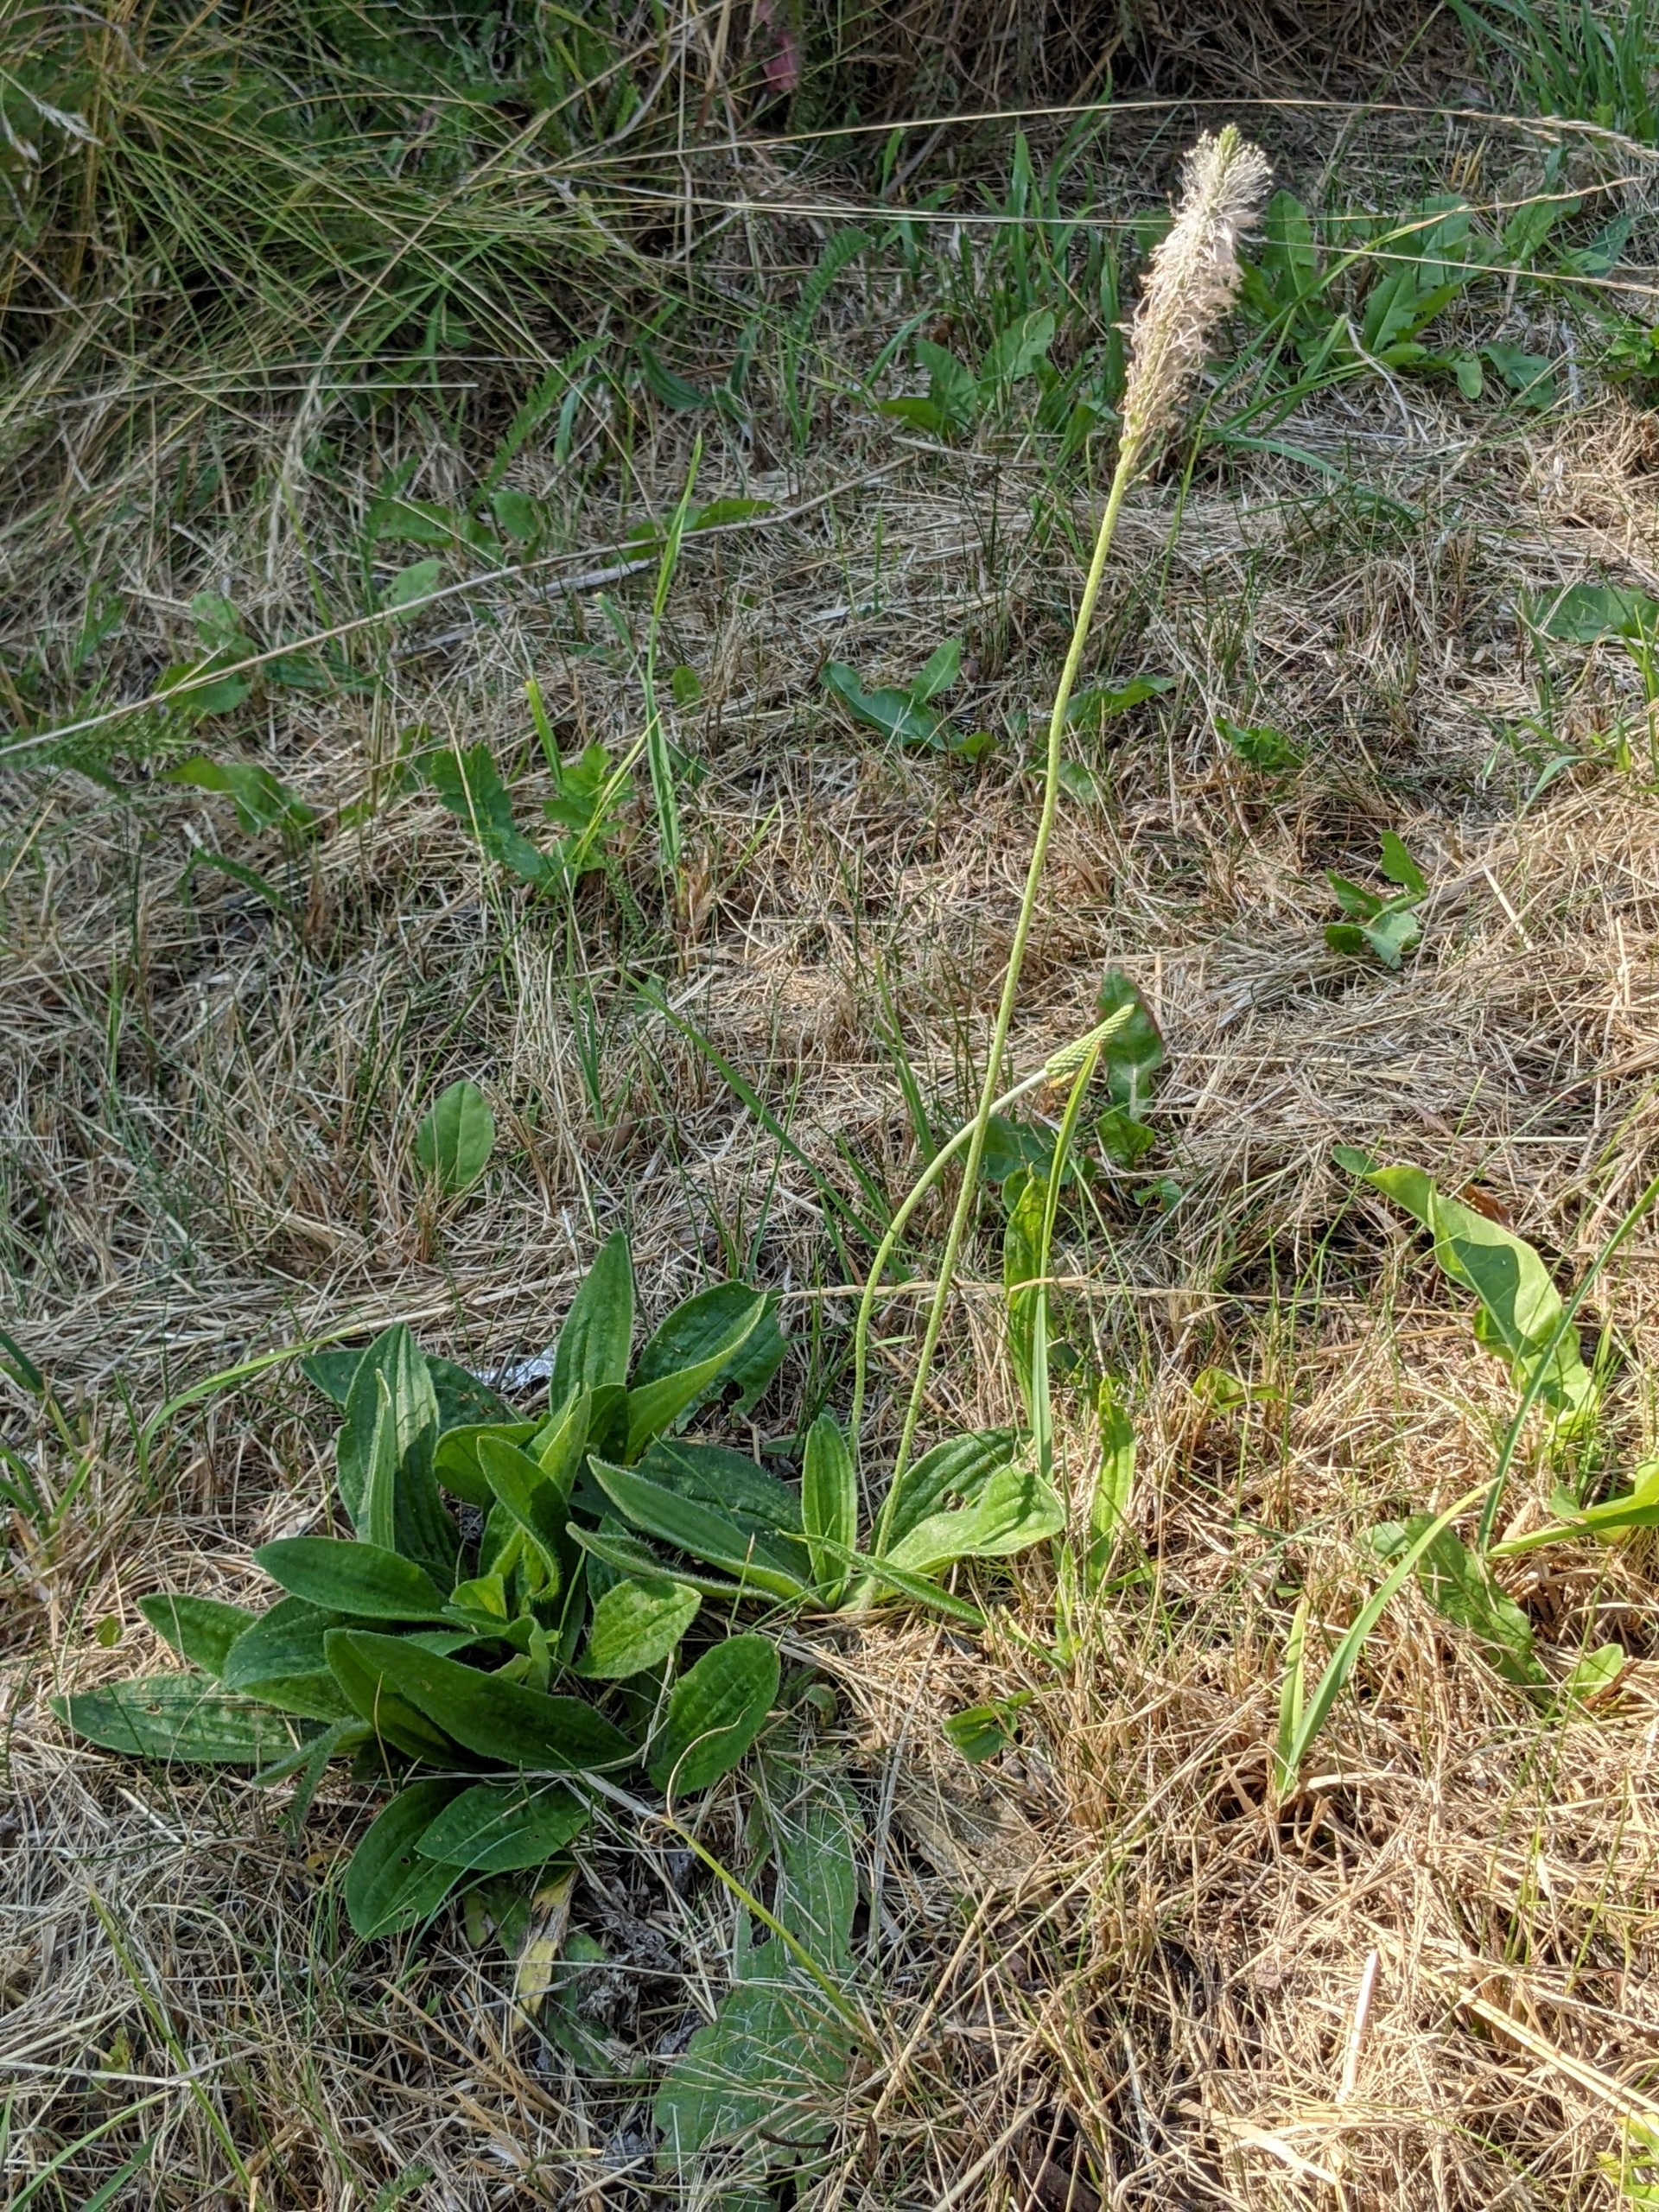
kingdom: Plantae
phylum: Tracheophyta
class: Magnoliopsida
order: Lamiales
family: Plantaginaceae
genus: Plantago
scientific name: Plantago media
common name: Dunet vejbred
